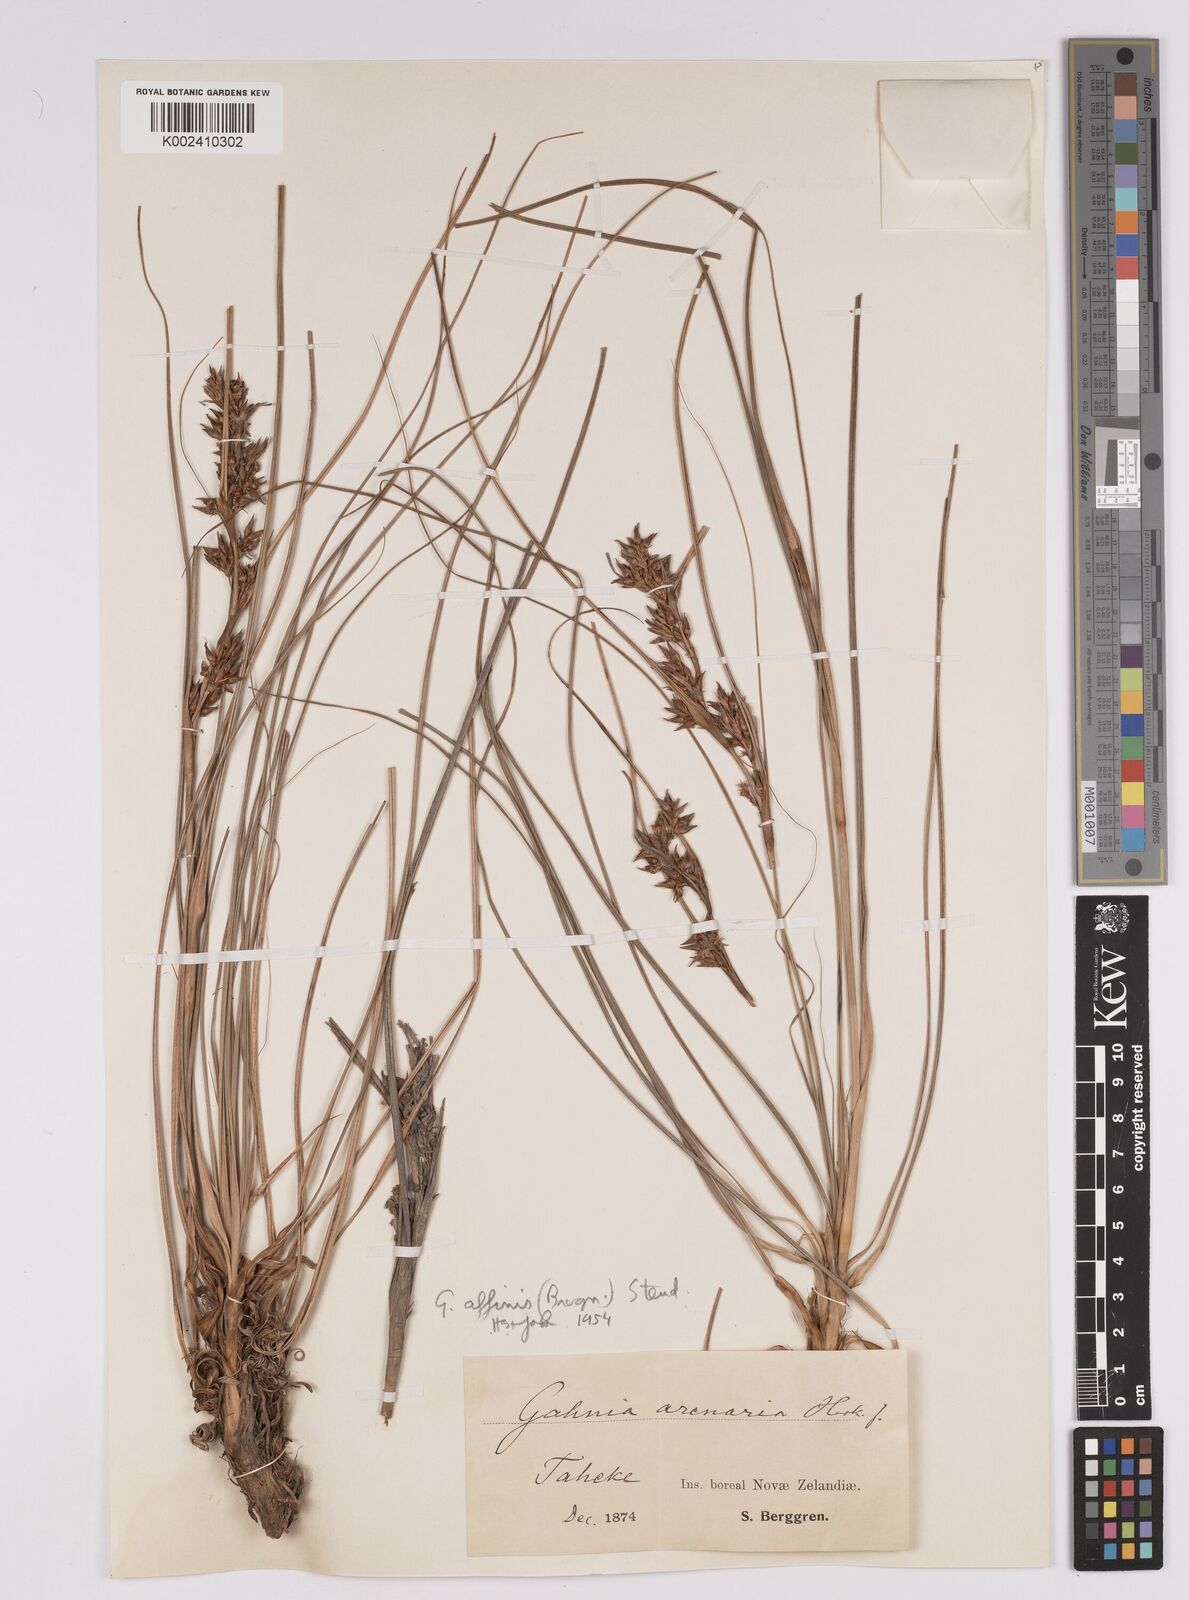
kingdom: Plantae
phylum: Tracheophyta
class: Liliopsida
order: Poales
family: Cyperaceae
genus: Morelotia
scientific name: Morelotia affinis
